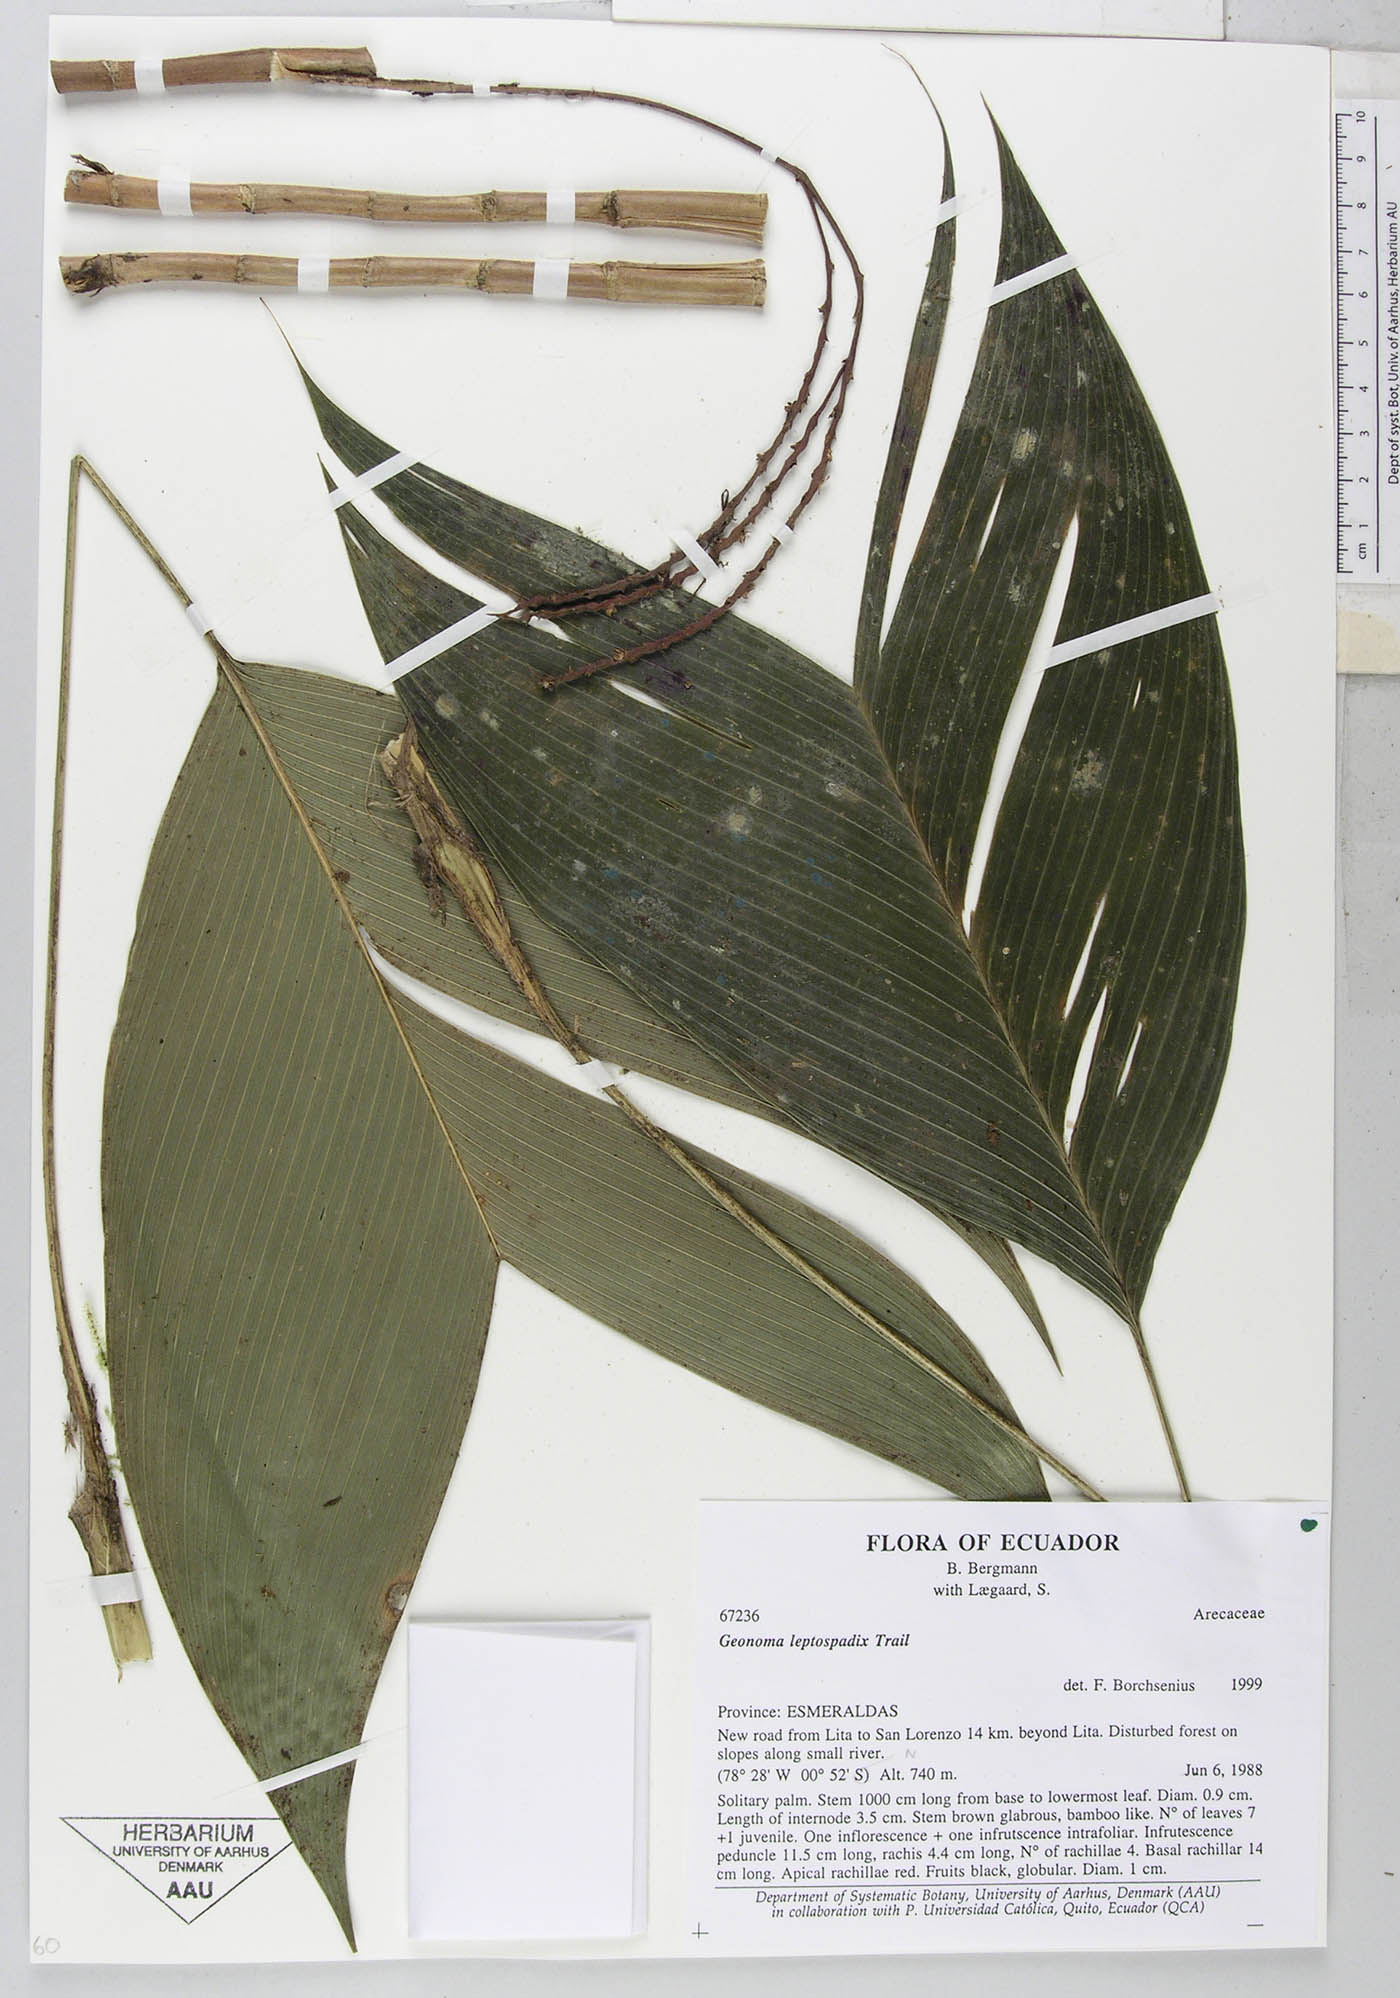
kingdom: Plantae
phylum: Tracheophyta
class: Liliopsida
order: Arecales
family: Arecaceae
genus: Geonoma
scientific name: Geonoma lanata
